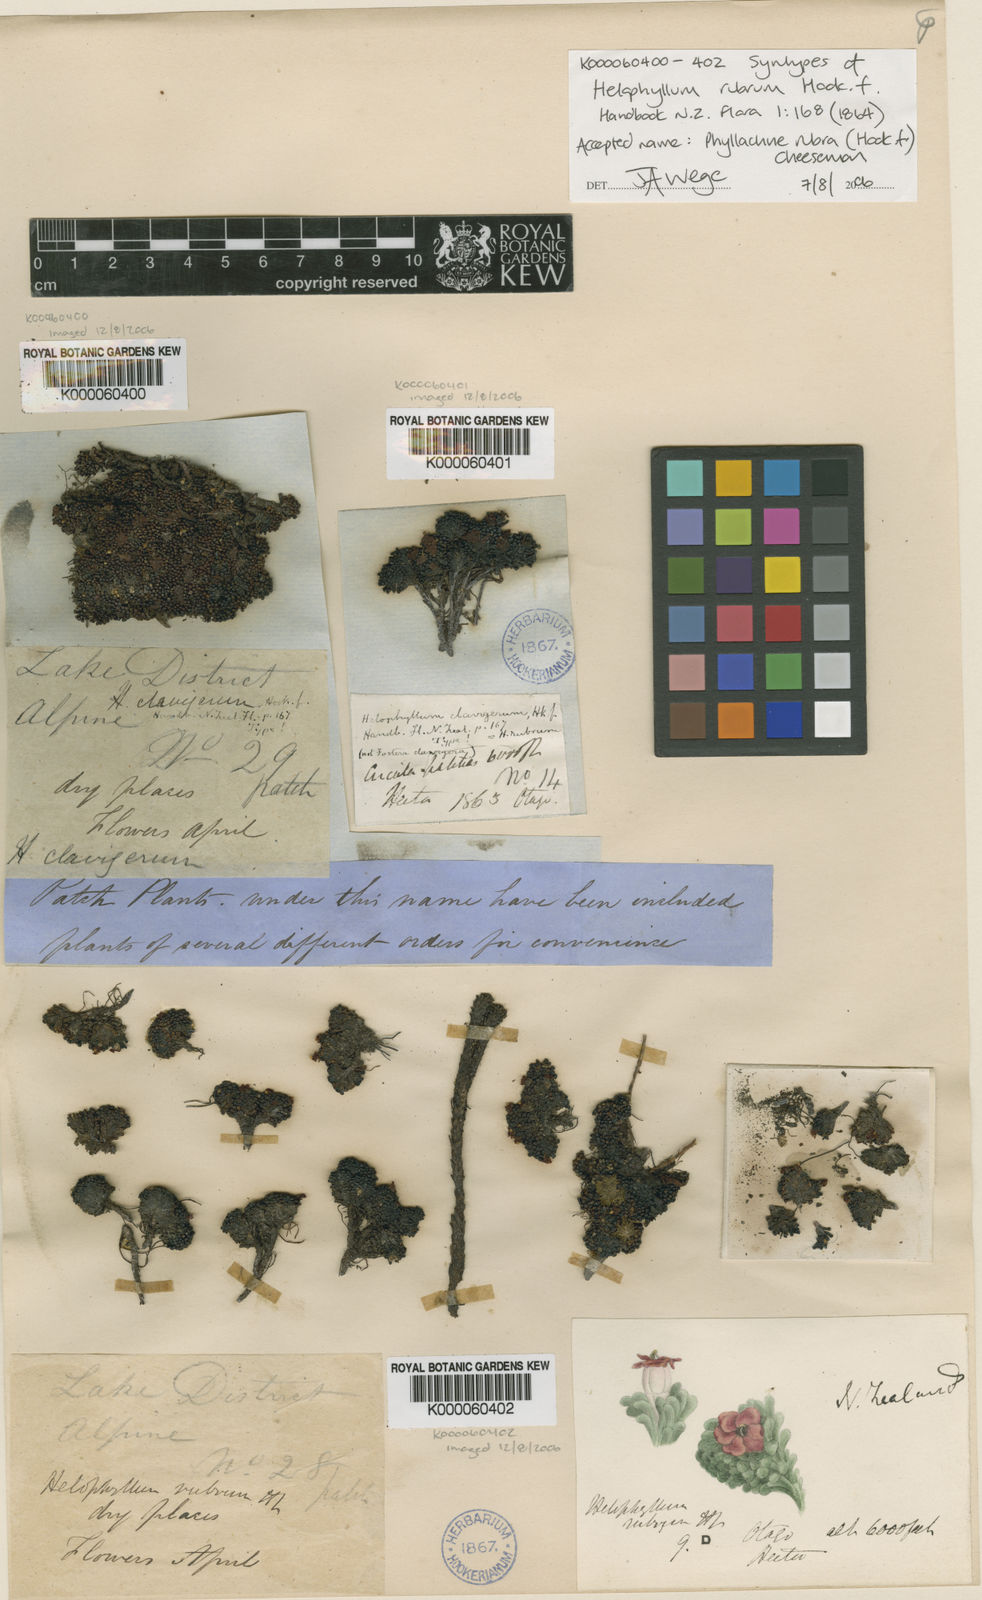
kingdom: Plantae
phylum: Tracheophyta
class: Magnoliopsida
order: Asterales
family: Stylidiaceae
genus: Phyllachne
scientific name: Phyllachne rubra
